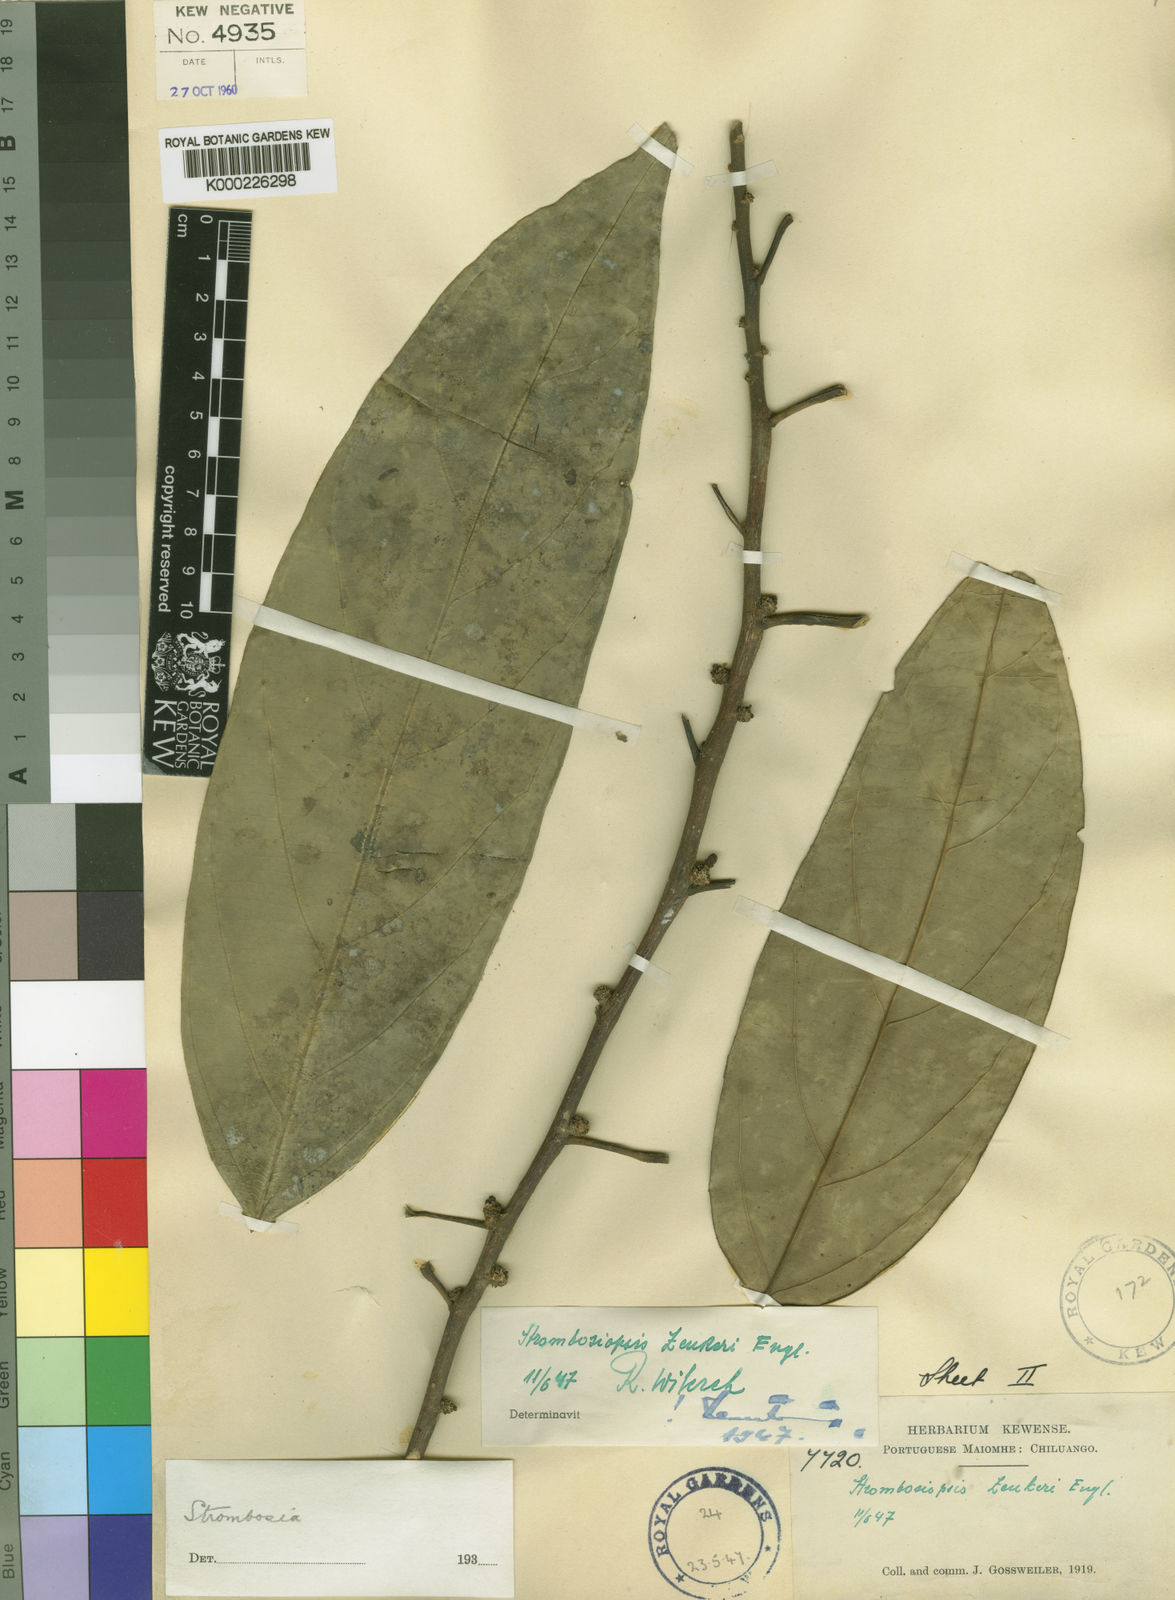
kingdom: Plantae
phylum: Tracheophyta
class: Magnoliopsida
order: Santalales
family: Strombosiaceae
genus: Diogoa
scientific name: Diogoa
